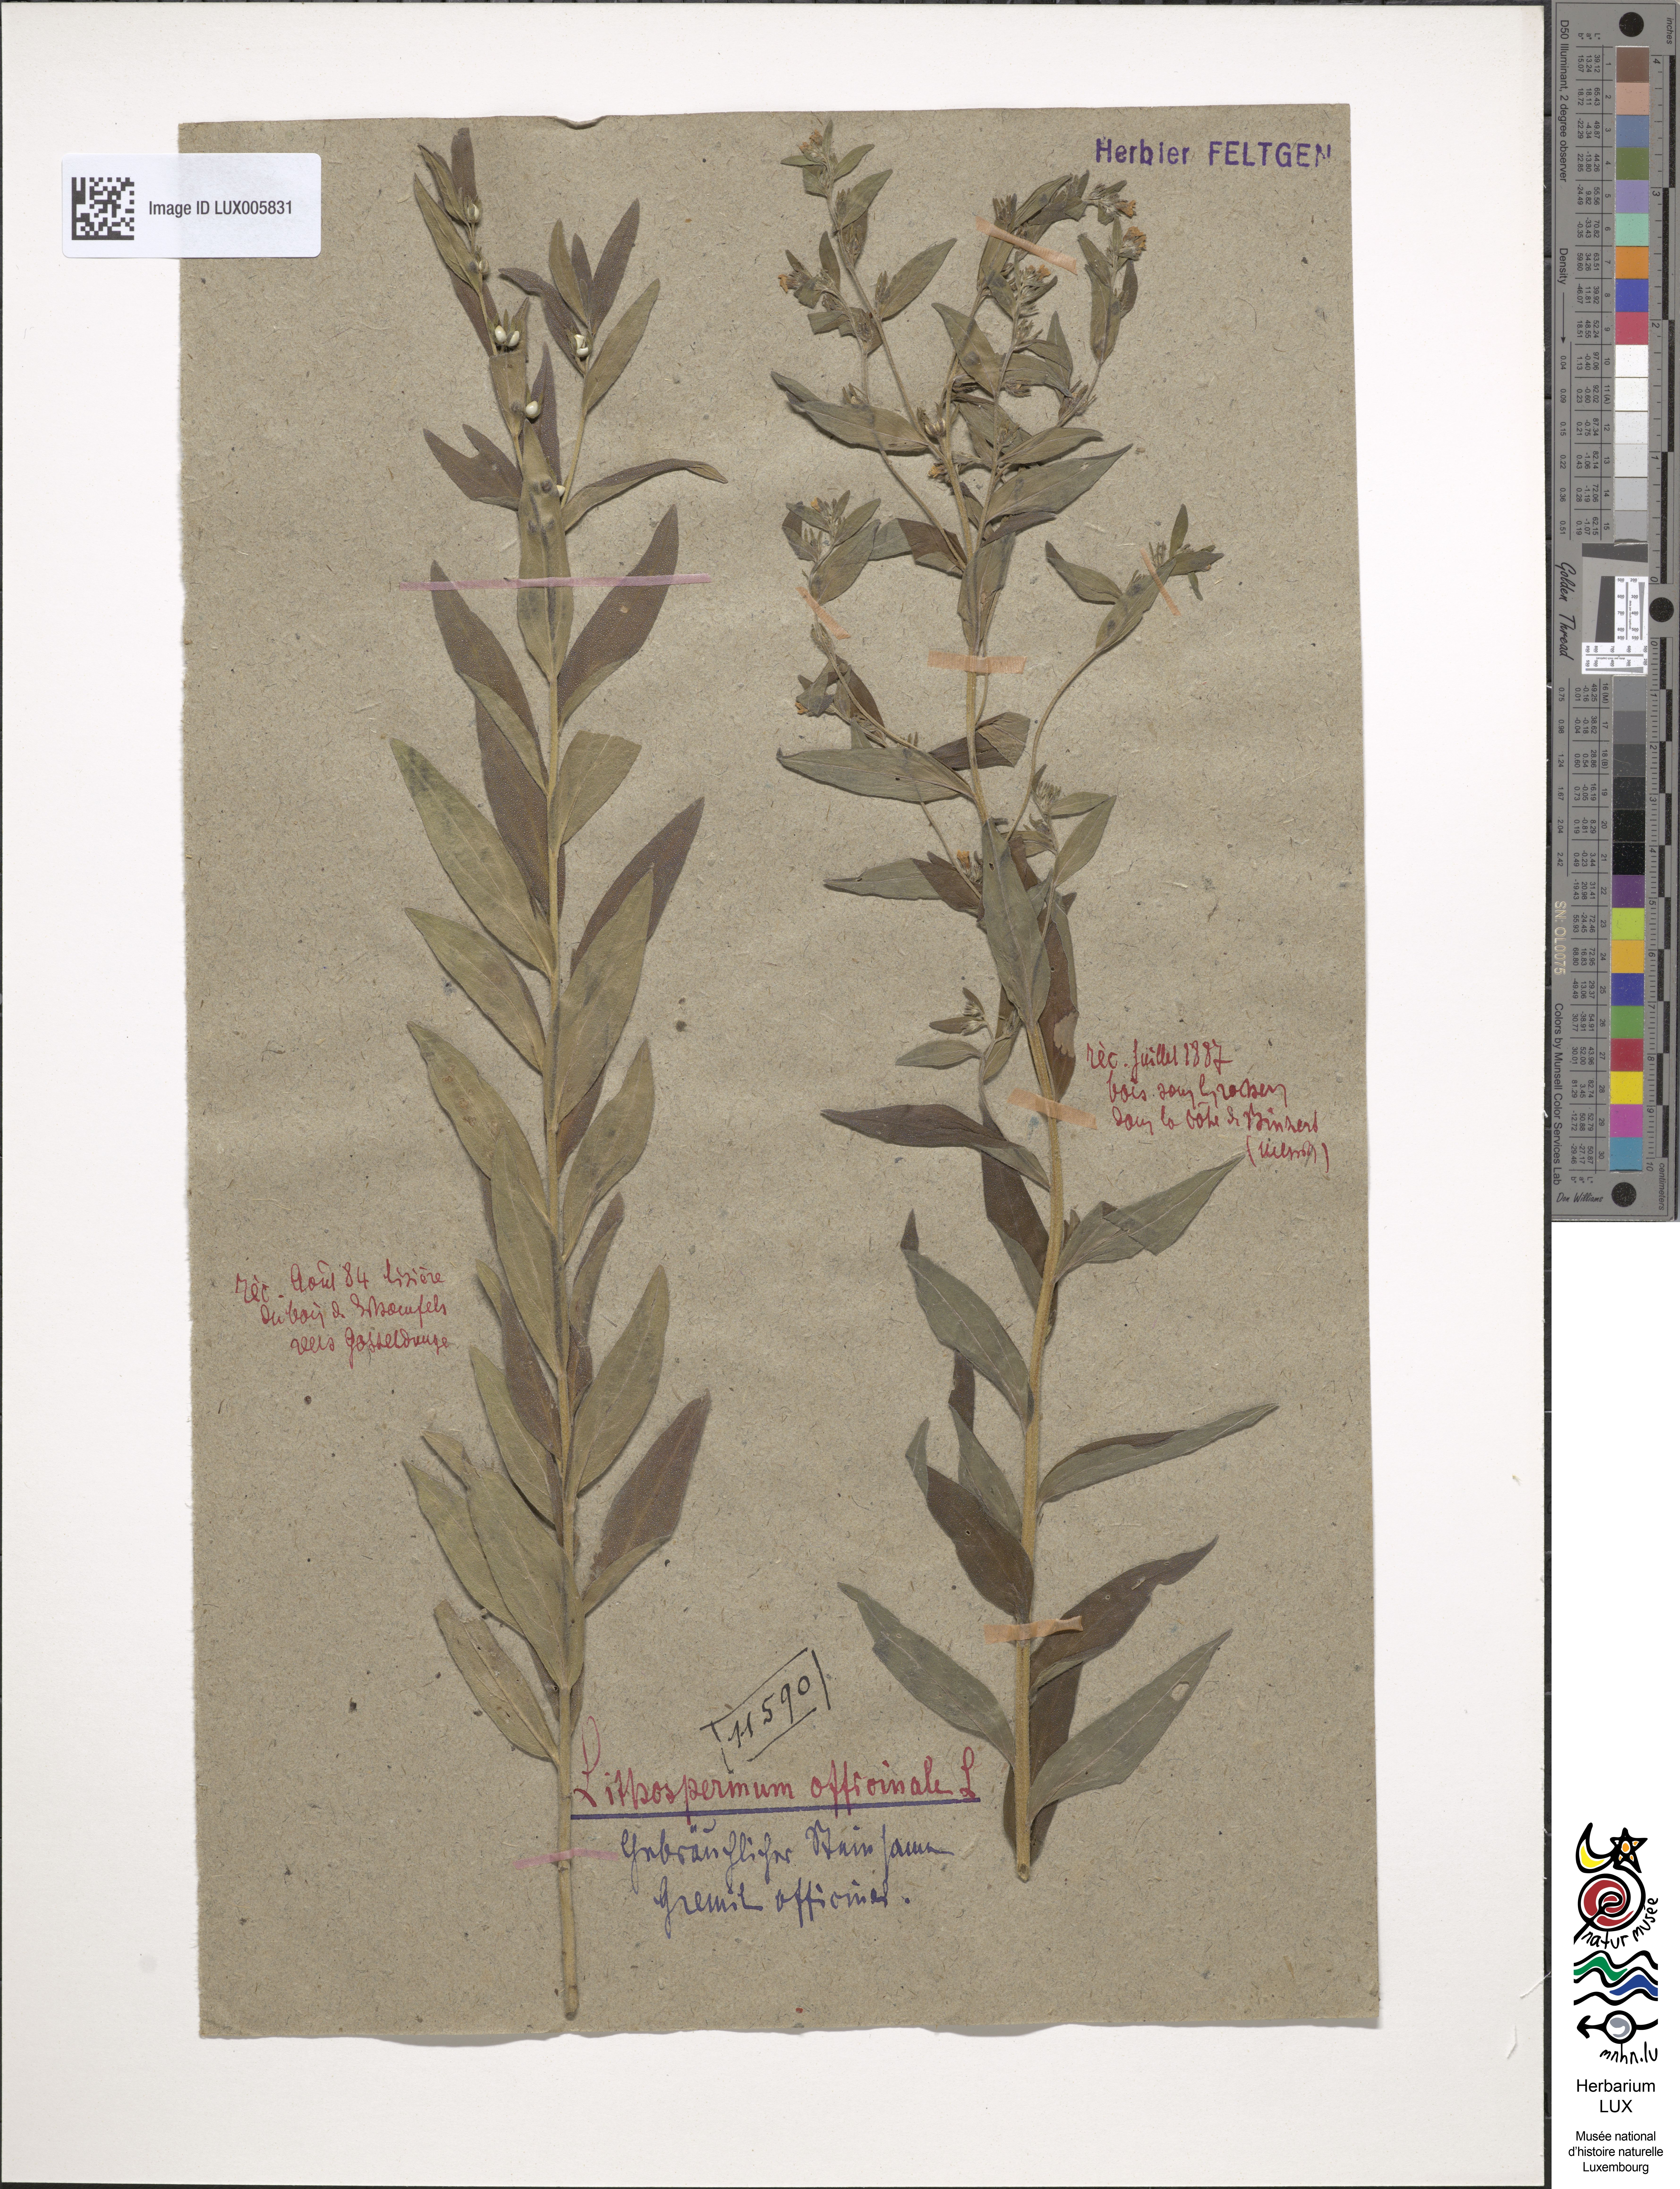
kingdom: Plantae
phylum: Tracheophyta
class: Magnoliopsida
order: Boraginales
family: Boraginaceae
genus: Lithospermum
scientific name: Lithospermum officinale
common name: Common gromwell
